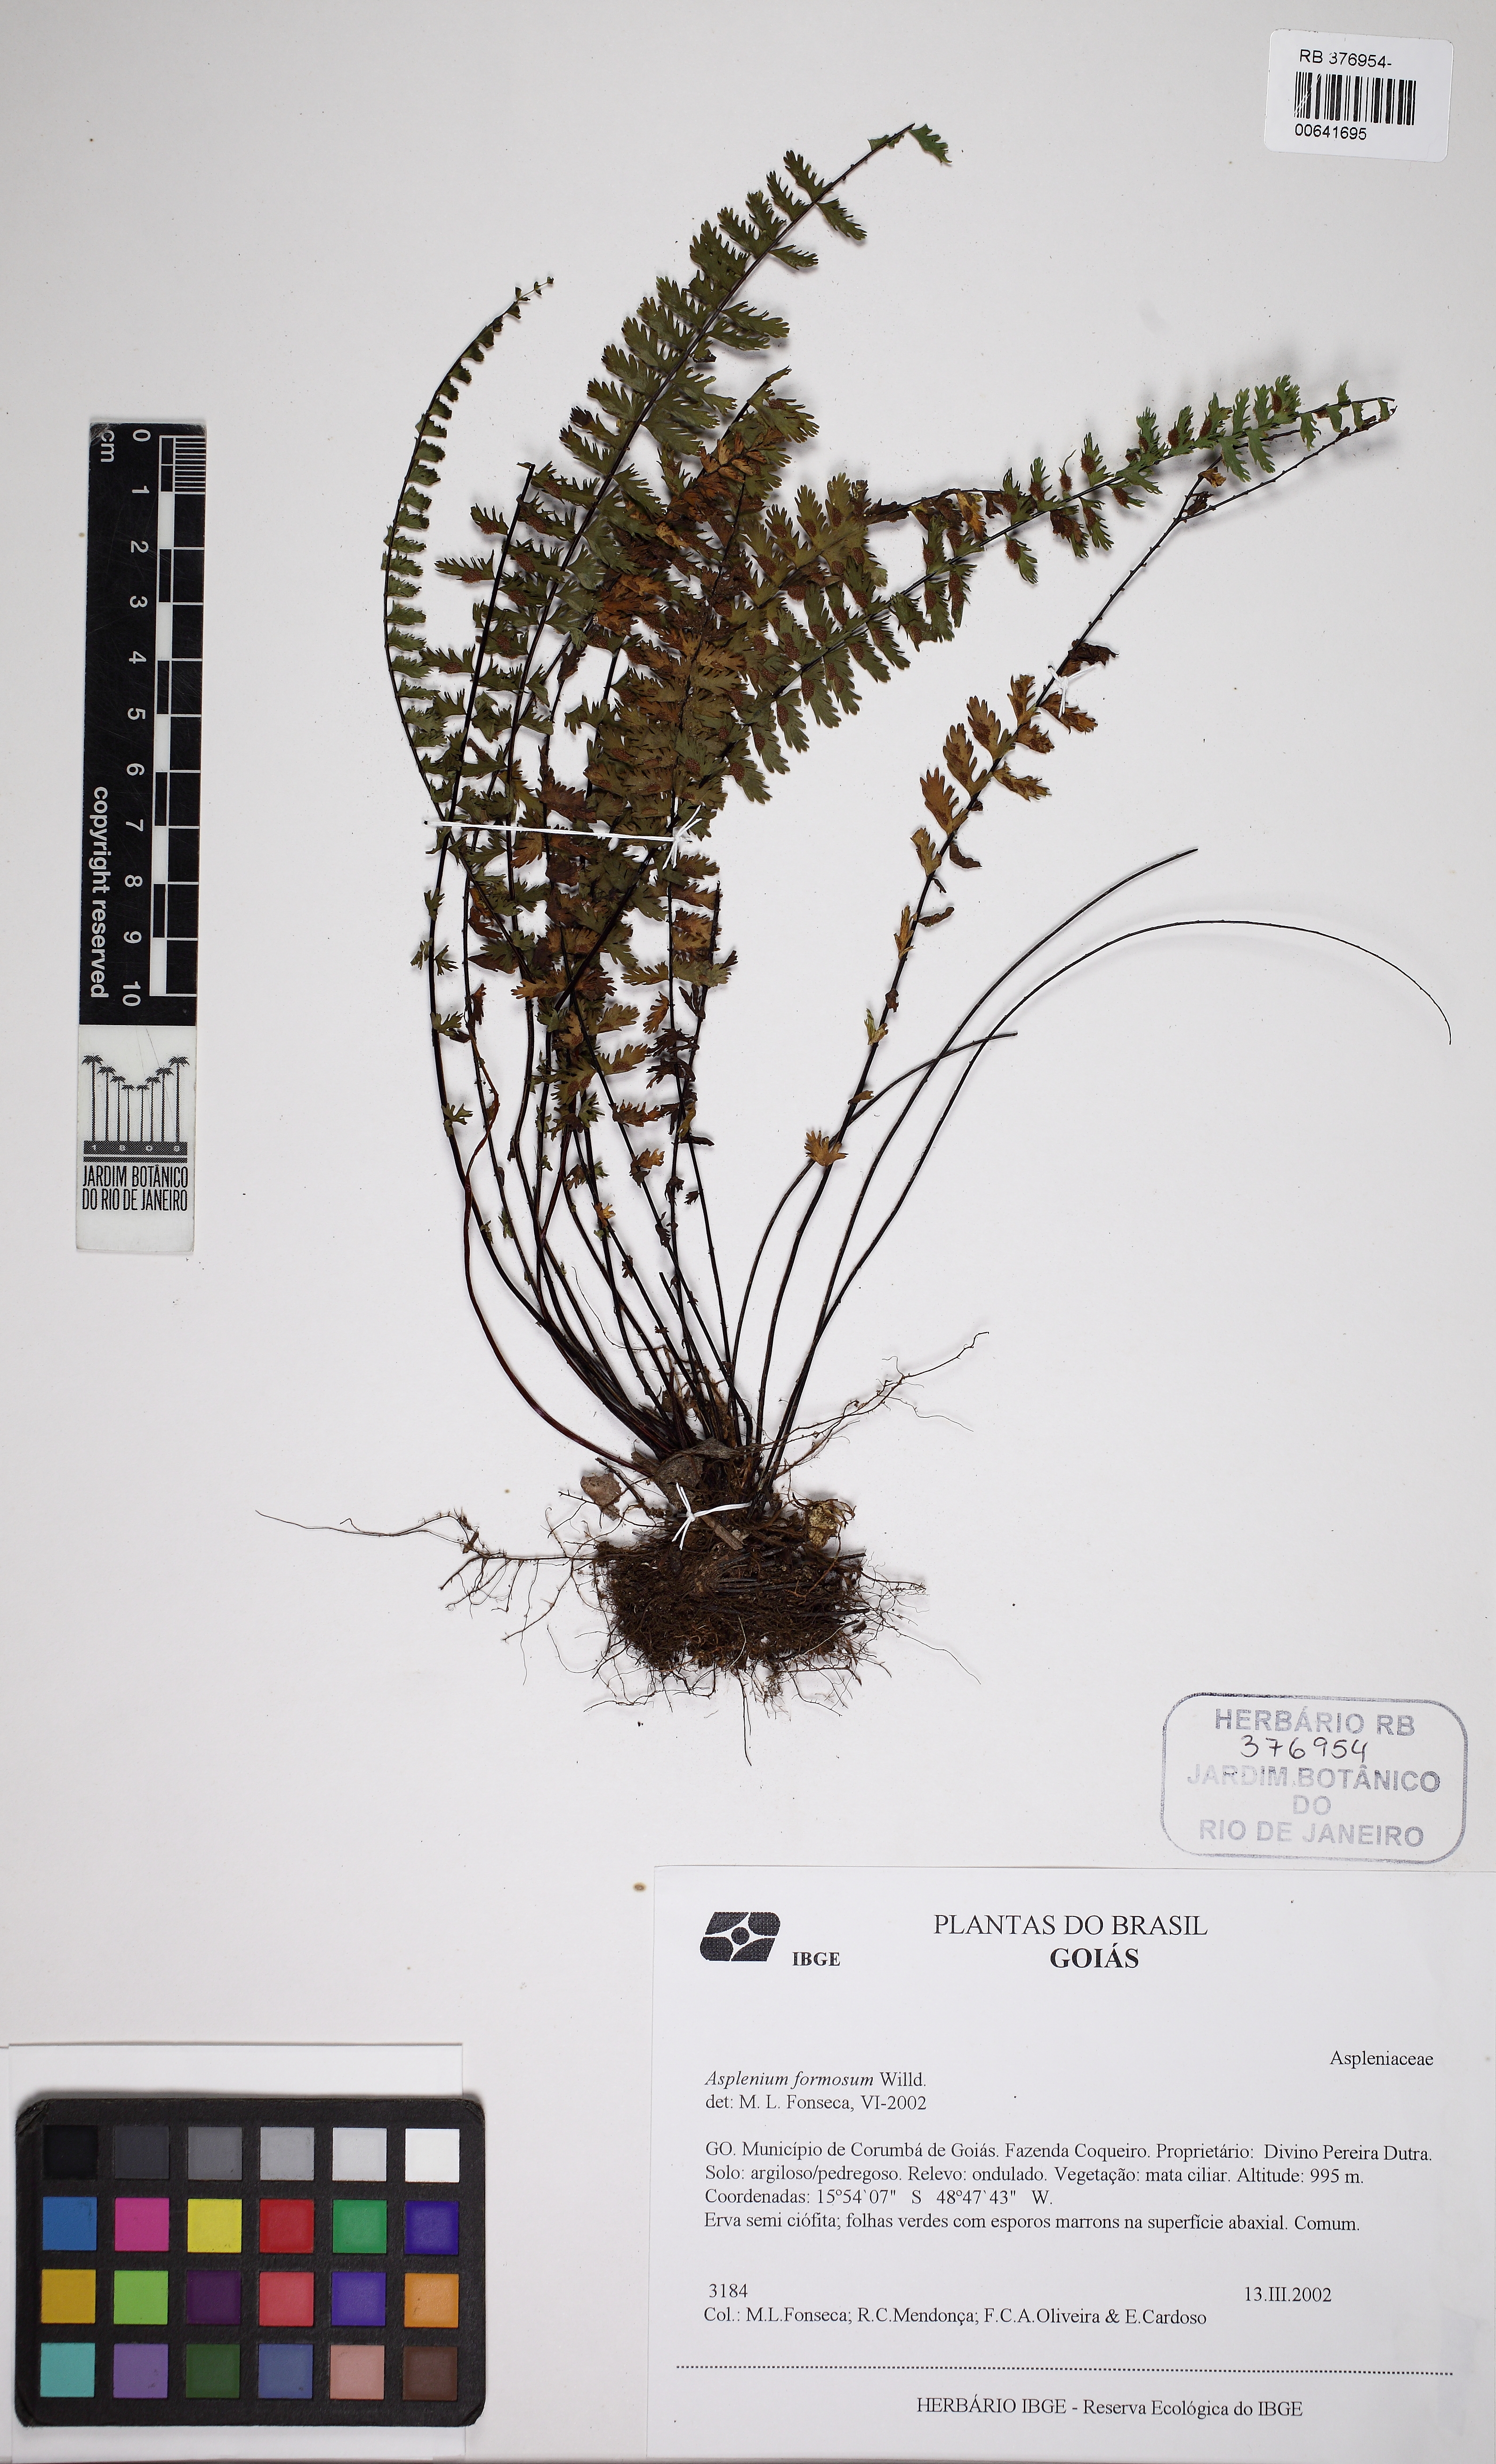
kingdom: Plantae
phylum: Tracheophyta
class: Polypodiopsida
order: Polypodiales
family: Aspleniaceae
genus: Asplenium
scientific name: Asplenium formosum
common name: Showy spleenwort
